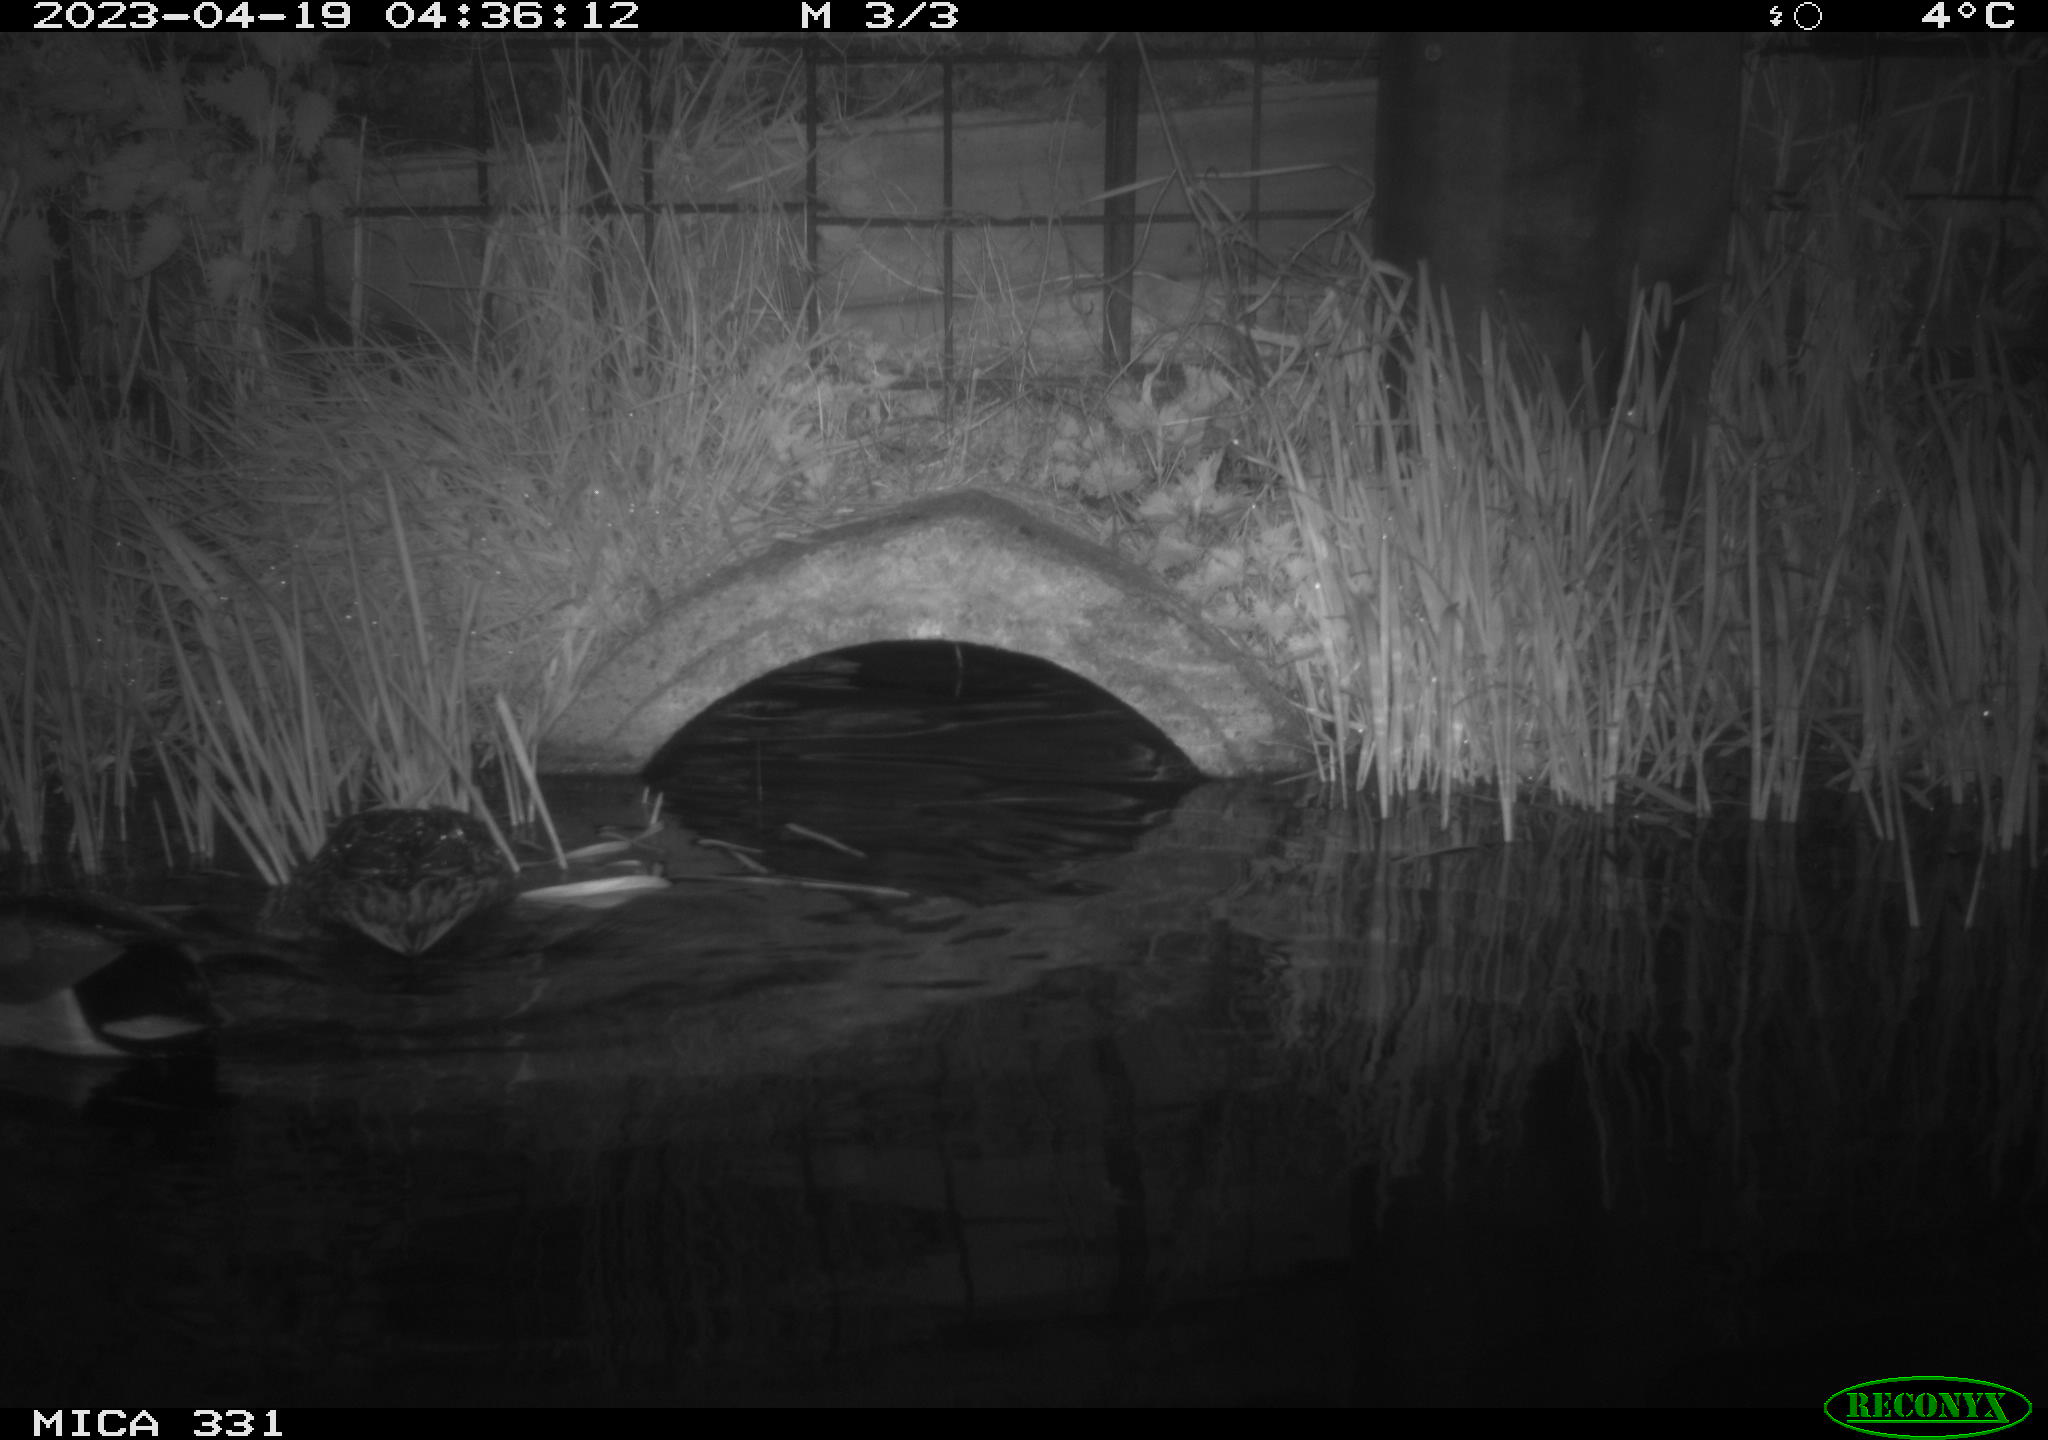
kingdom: Animalia
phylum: Chordata
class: Aves
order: Anseriformes
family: Anatidae
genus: Anas
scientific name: Anas platyrhynchos
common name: Mallard
